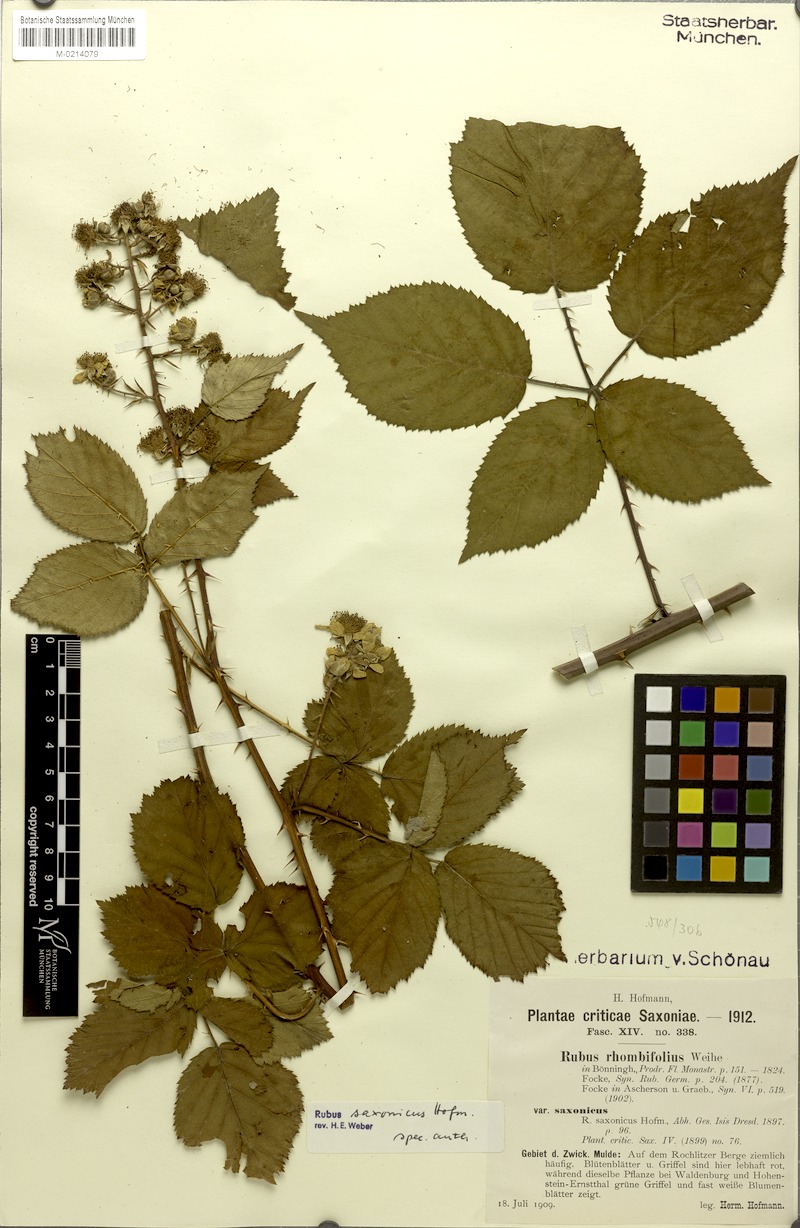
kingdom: Plantae
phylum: Tracheophyta
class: Magnoliopsida
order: Rosales
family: Rosaceae
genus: Rubus
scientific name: Rubus saxonicus
